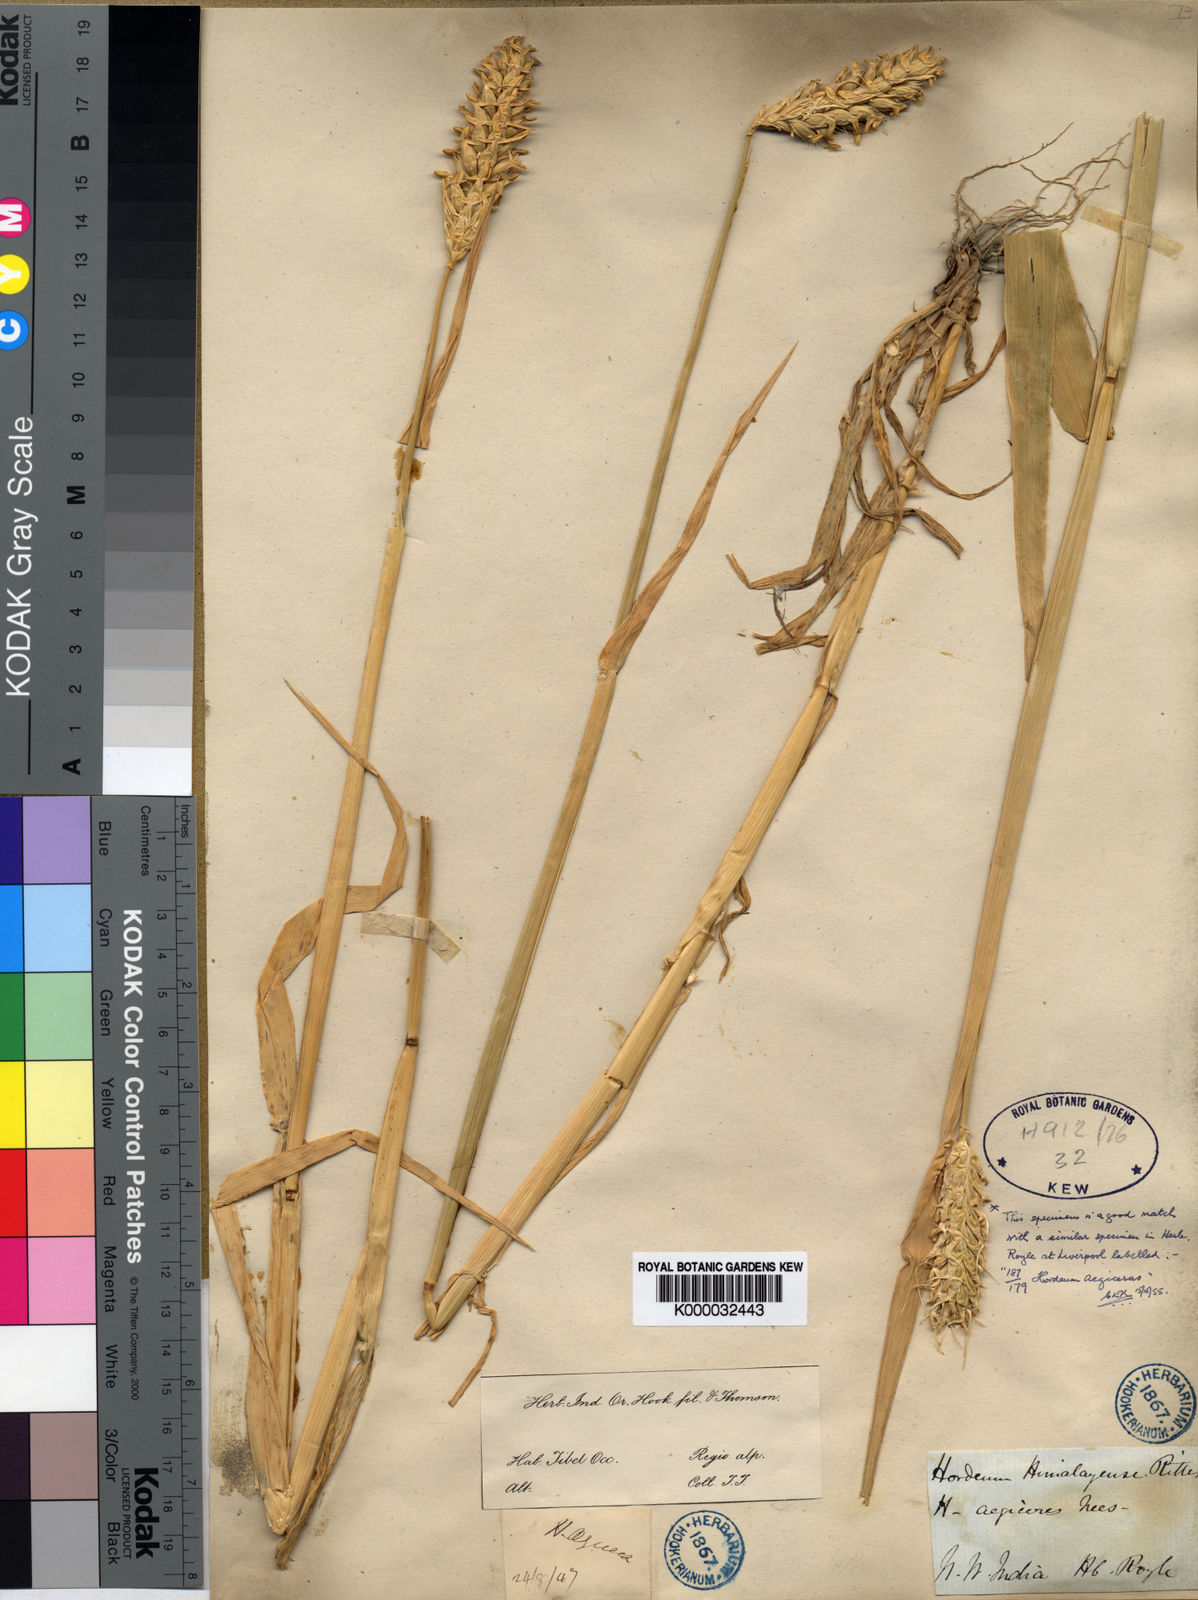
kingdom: Plantae
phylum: Tracheophyta
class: Liliopsida
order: Poales
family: Poaceae
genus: Hordeum
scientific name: Hordeum vulgare
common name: Common barley
